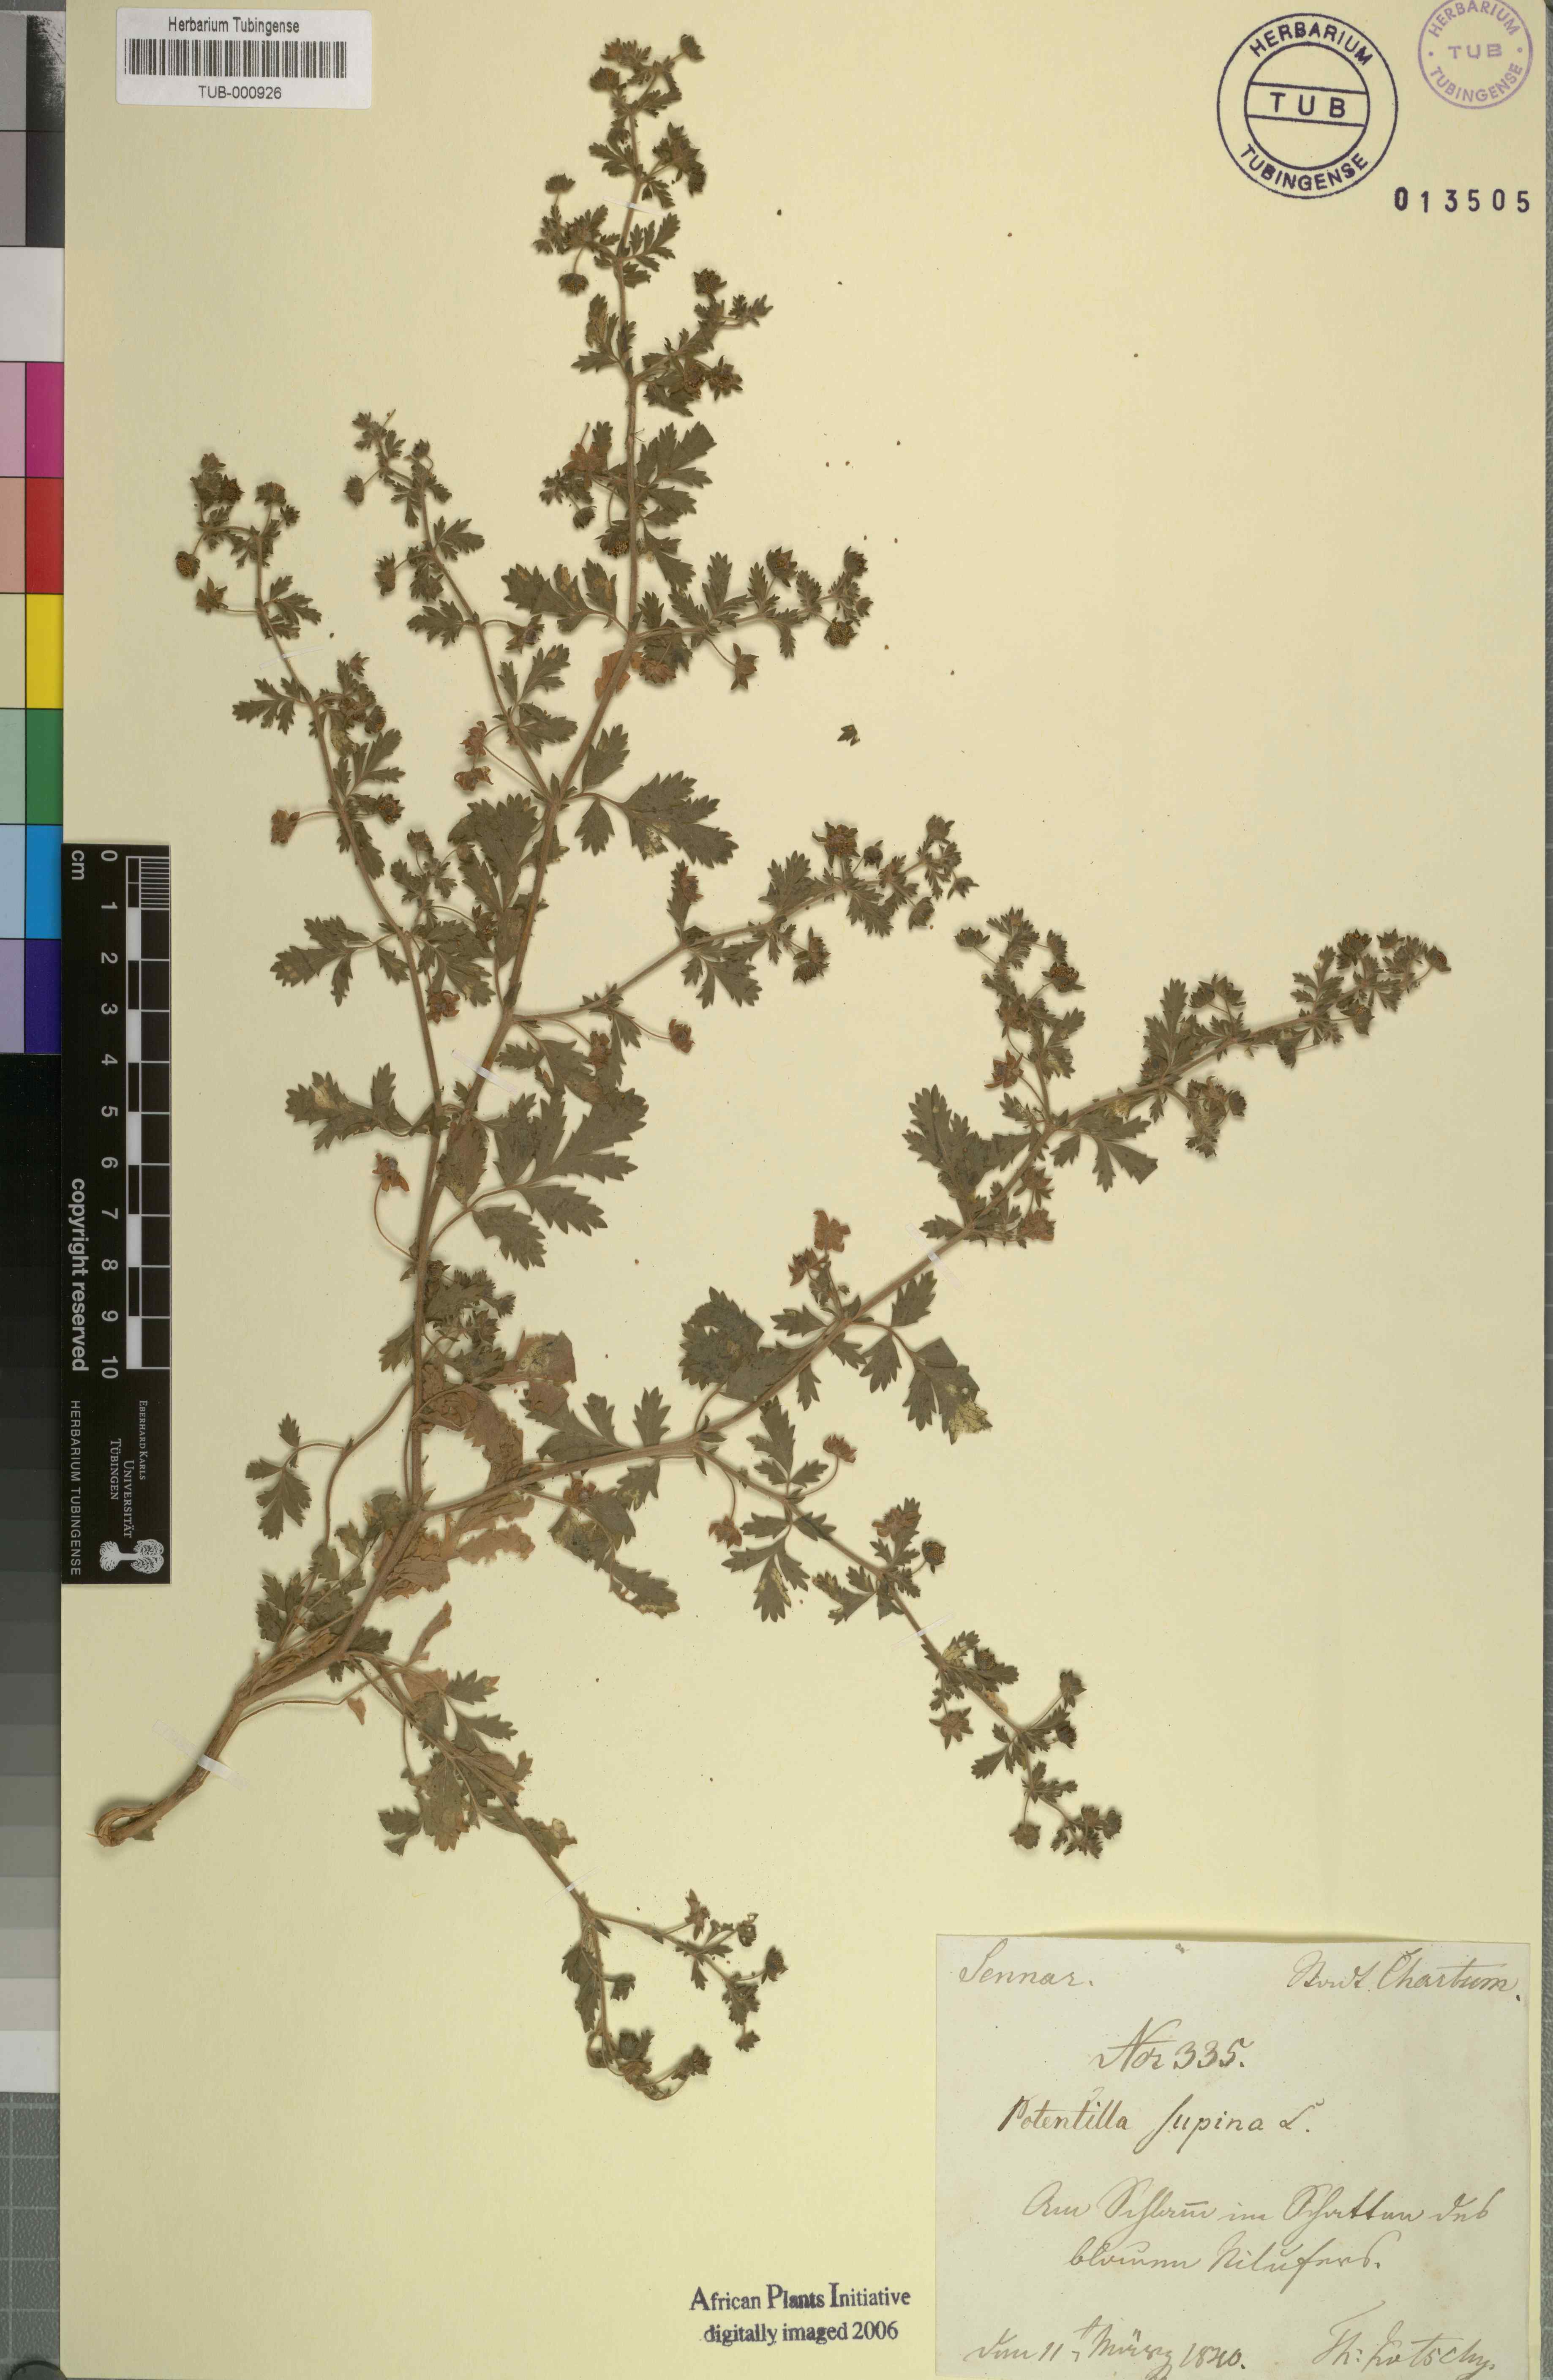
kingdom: Plantae
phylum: Tracheophyta
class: Magnoliopsida
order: Rosales
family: Rosaceae
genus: Potentilla
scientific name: Potentilla supina
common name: Prostrate cinquefoil
